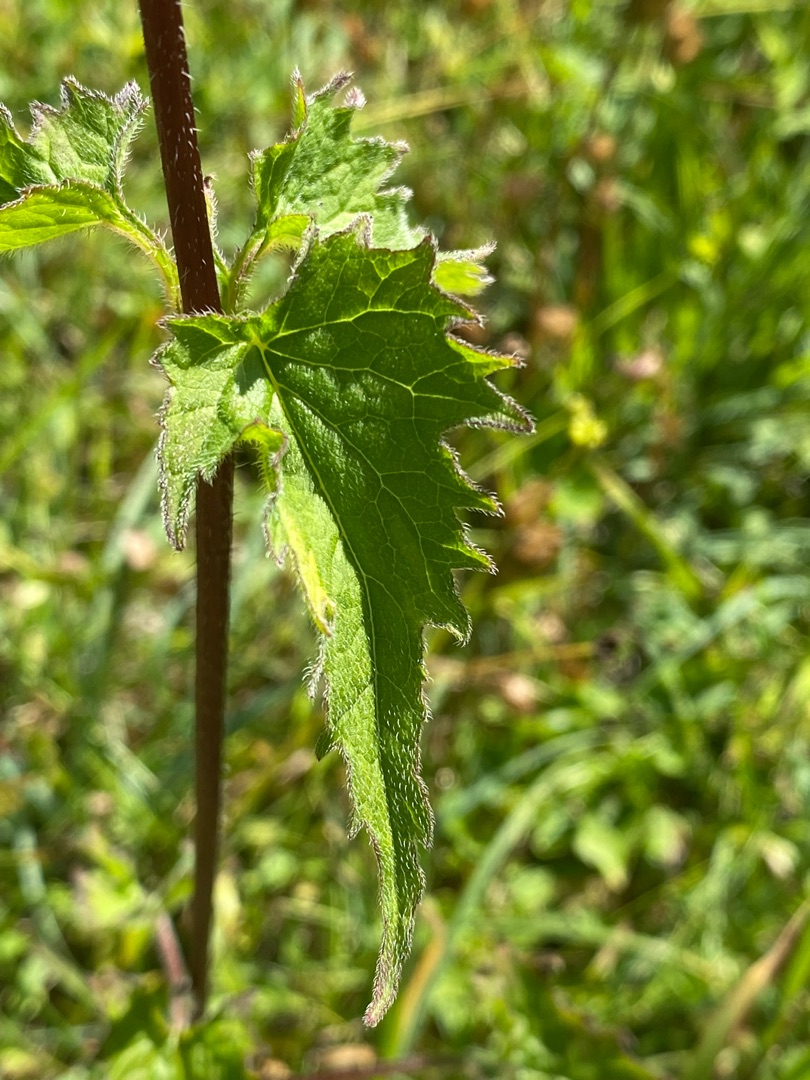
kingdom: Plantae
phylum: Tracheophyta
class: Magnoliopsida
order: Asterales
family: Campanulaceae
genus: Campanula
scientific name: Campanula trachelium
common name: Nælde-klokke
